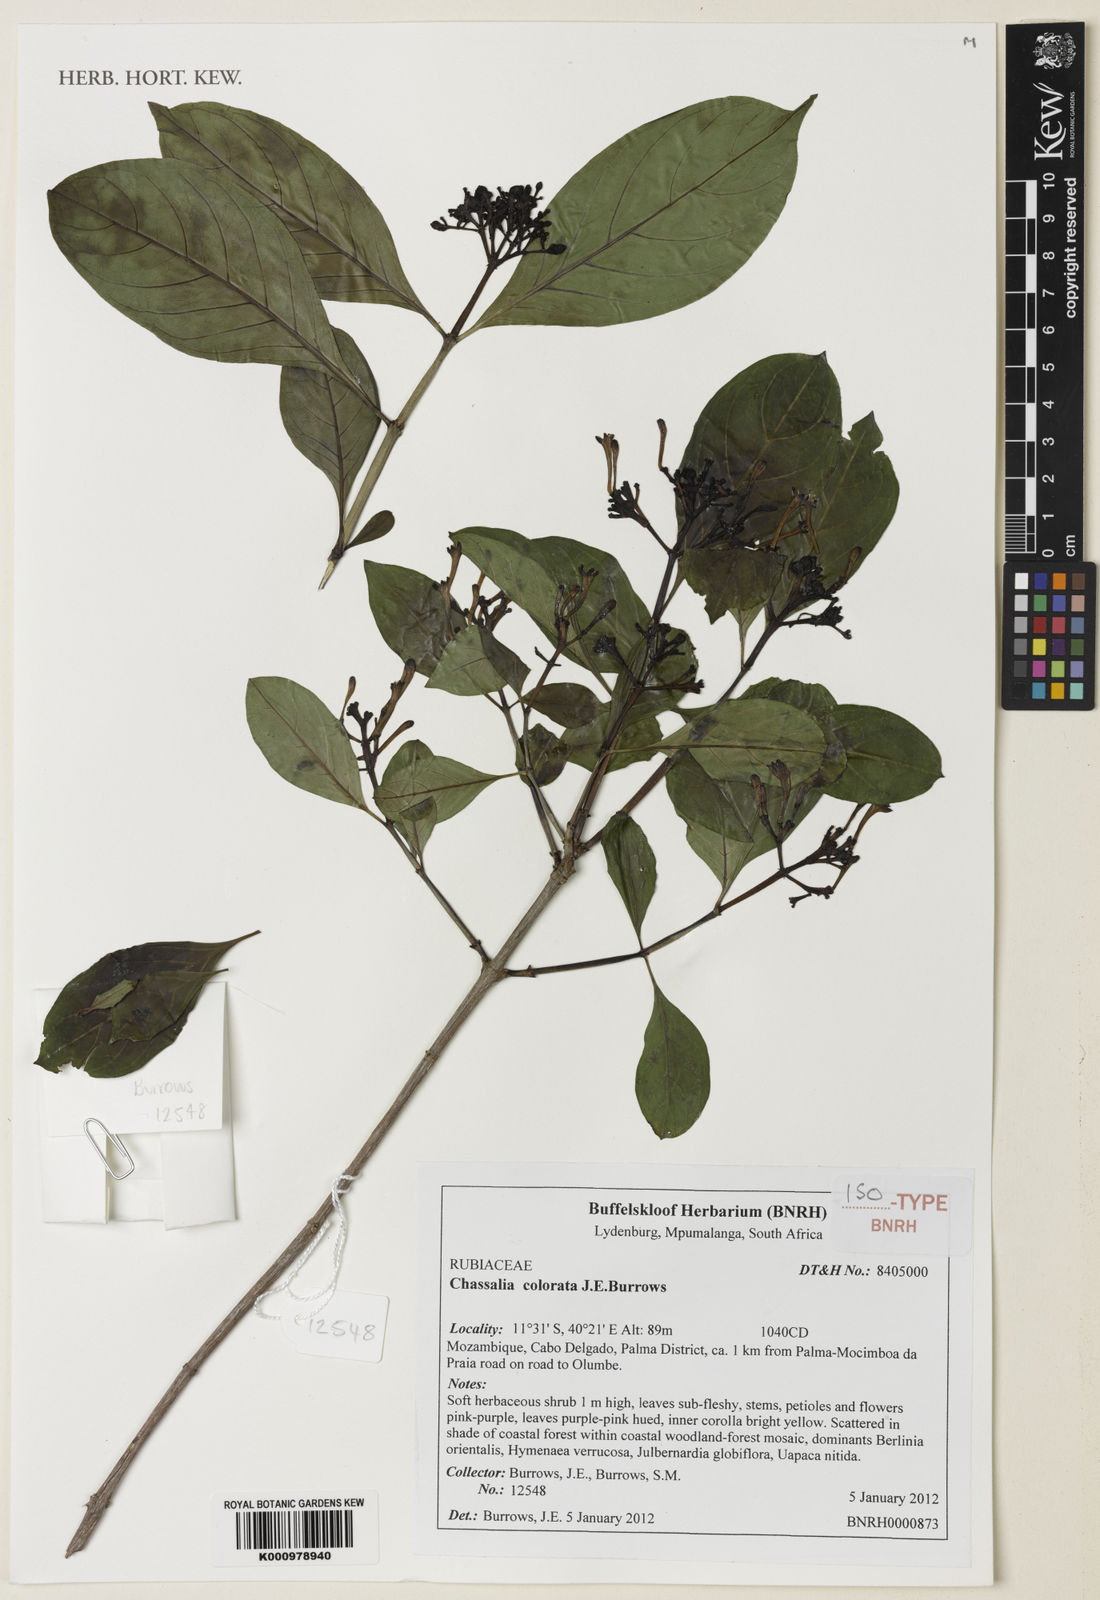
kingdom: Plantae
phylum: Tracheophyta
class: Magnoliopsida
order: Gentianales
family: Rubiaceae
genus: Chassalia
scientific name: Chassalia colorata
